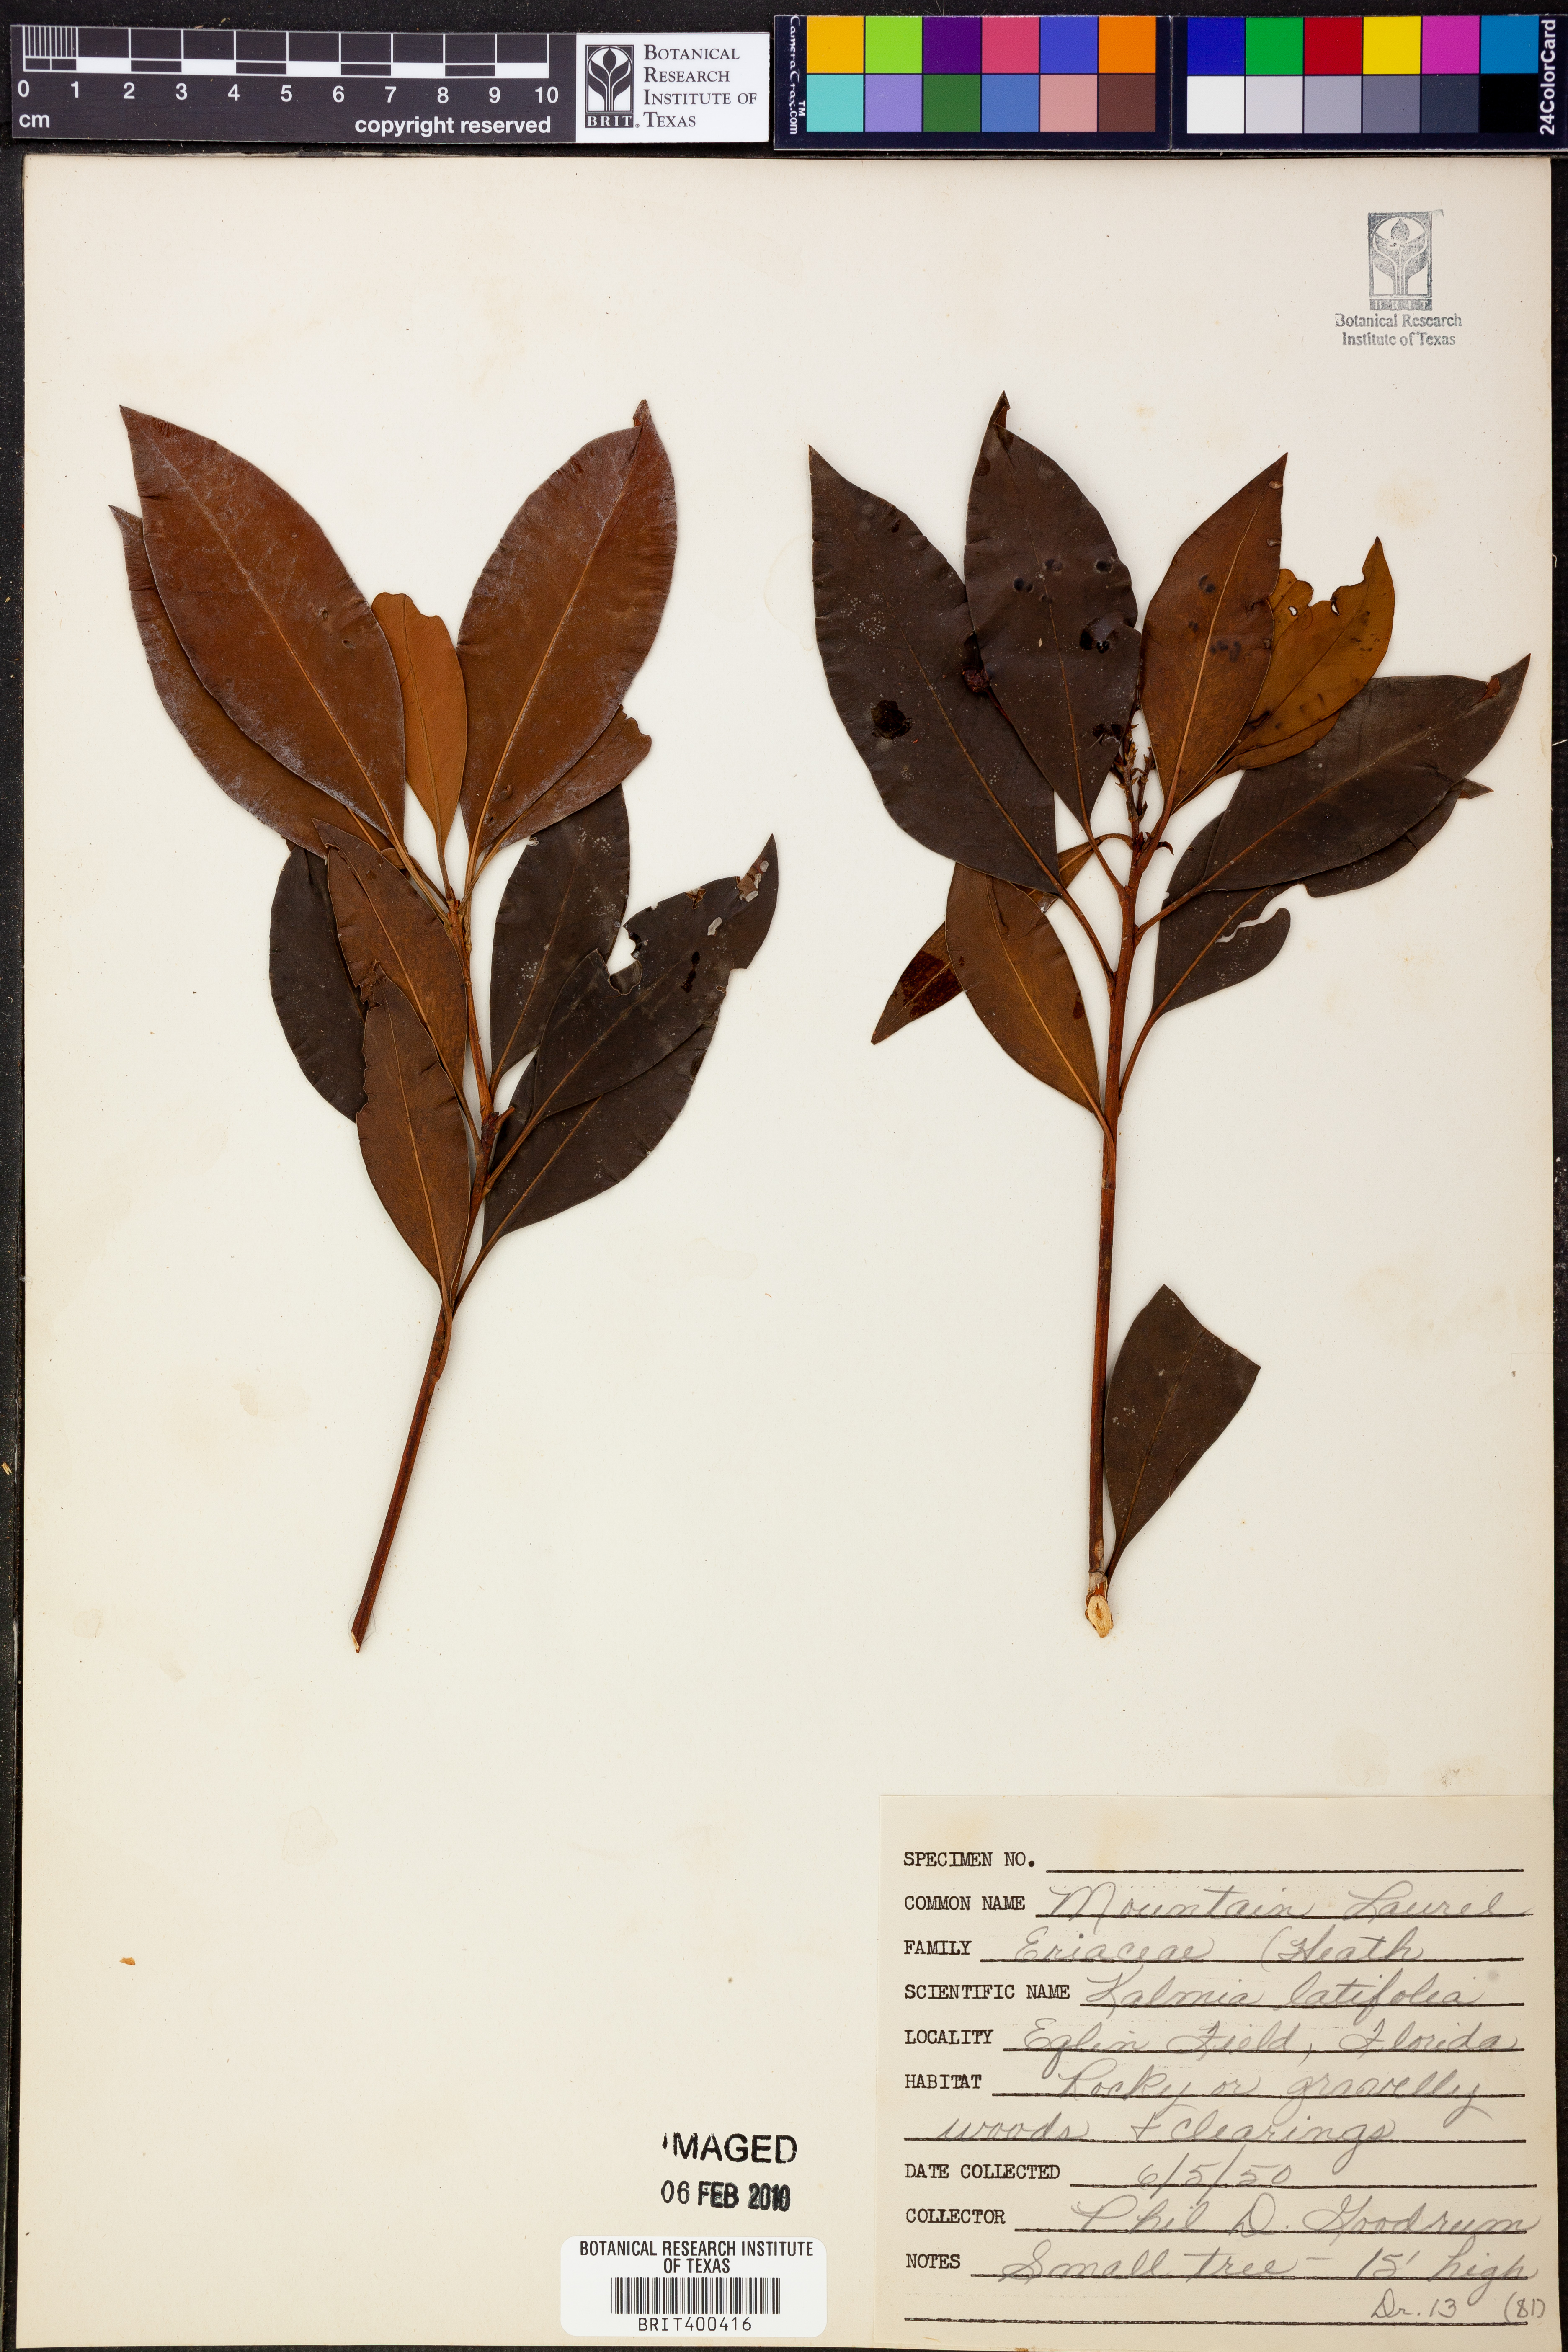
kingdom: Plantae
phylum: Tracheophyta
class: Magnoliopsida
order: Ericales
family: Ericaceae
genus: Kalmia
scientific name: Kalmia latifolia
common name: Mountain-laurel
